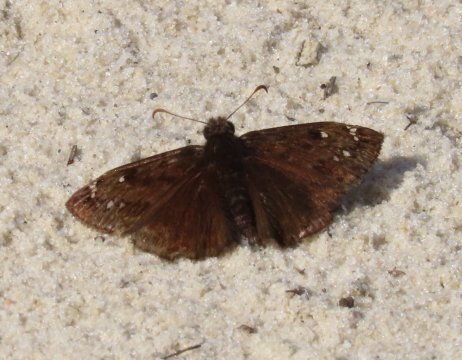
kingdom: Animalia
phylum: Arthropoda
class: Insecta
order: Lepidoptera
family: Hesperiidae
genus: Gesta
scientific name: Gesta
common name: Horace's Duskywing
